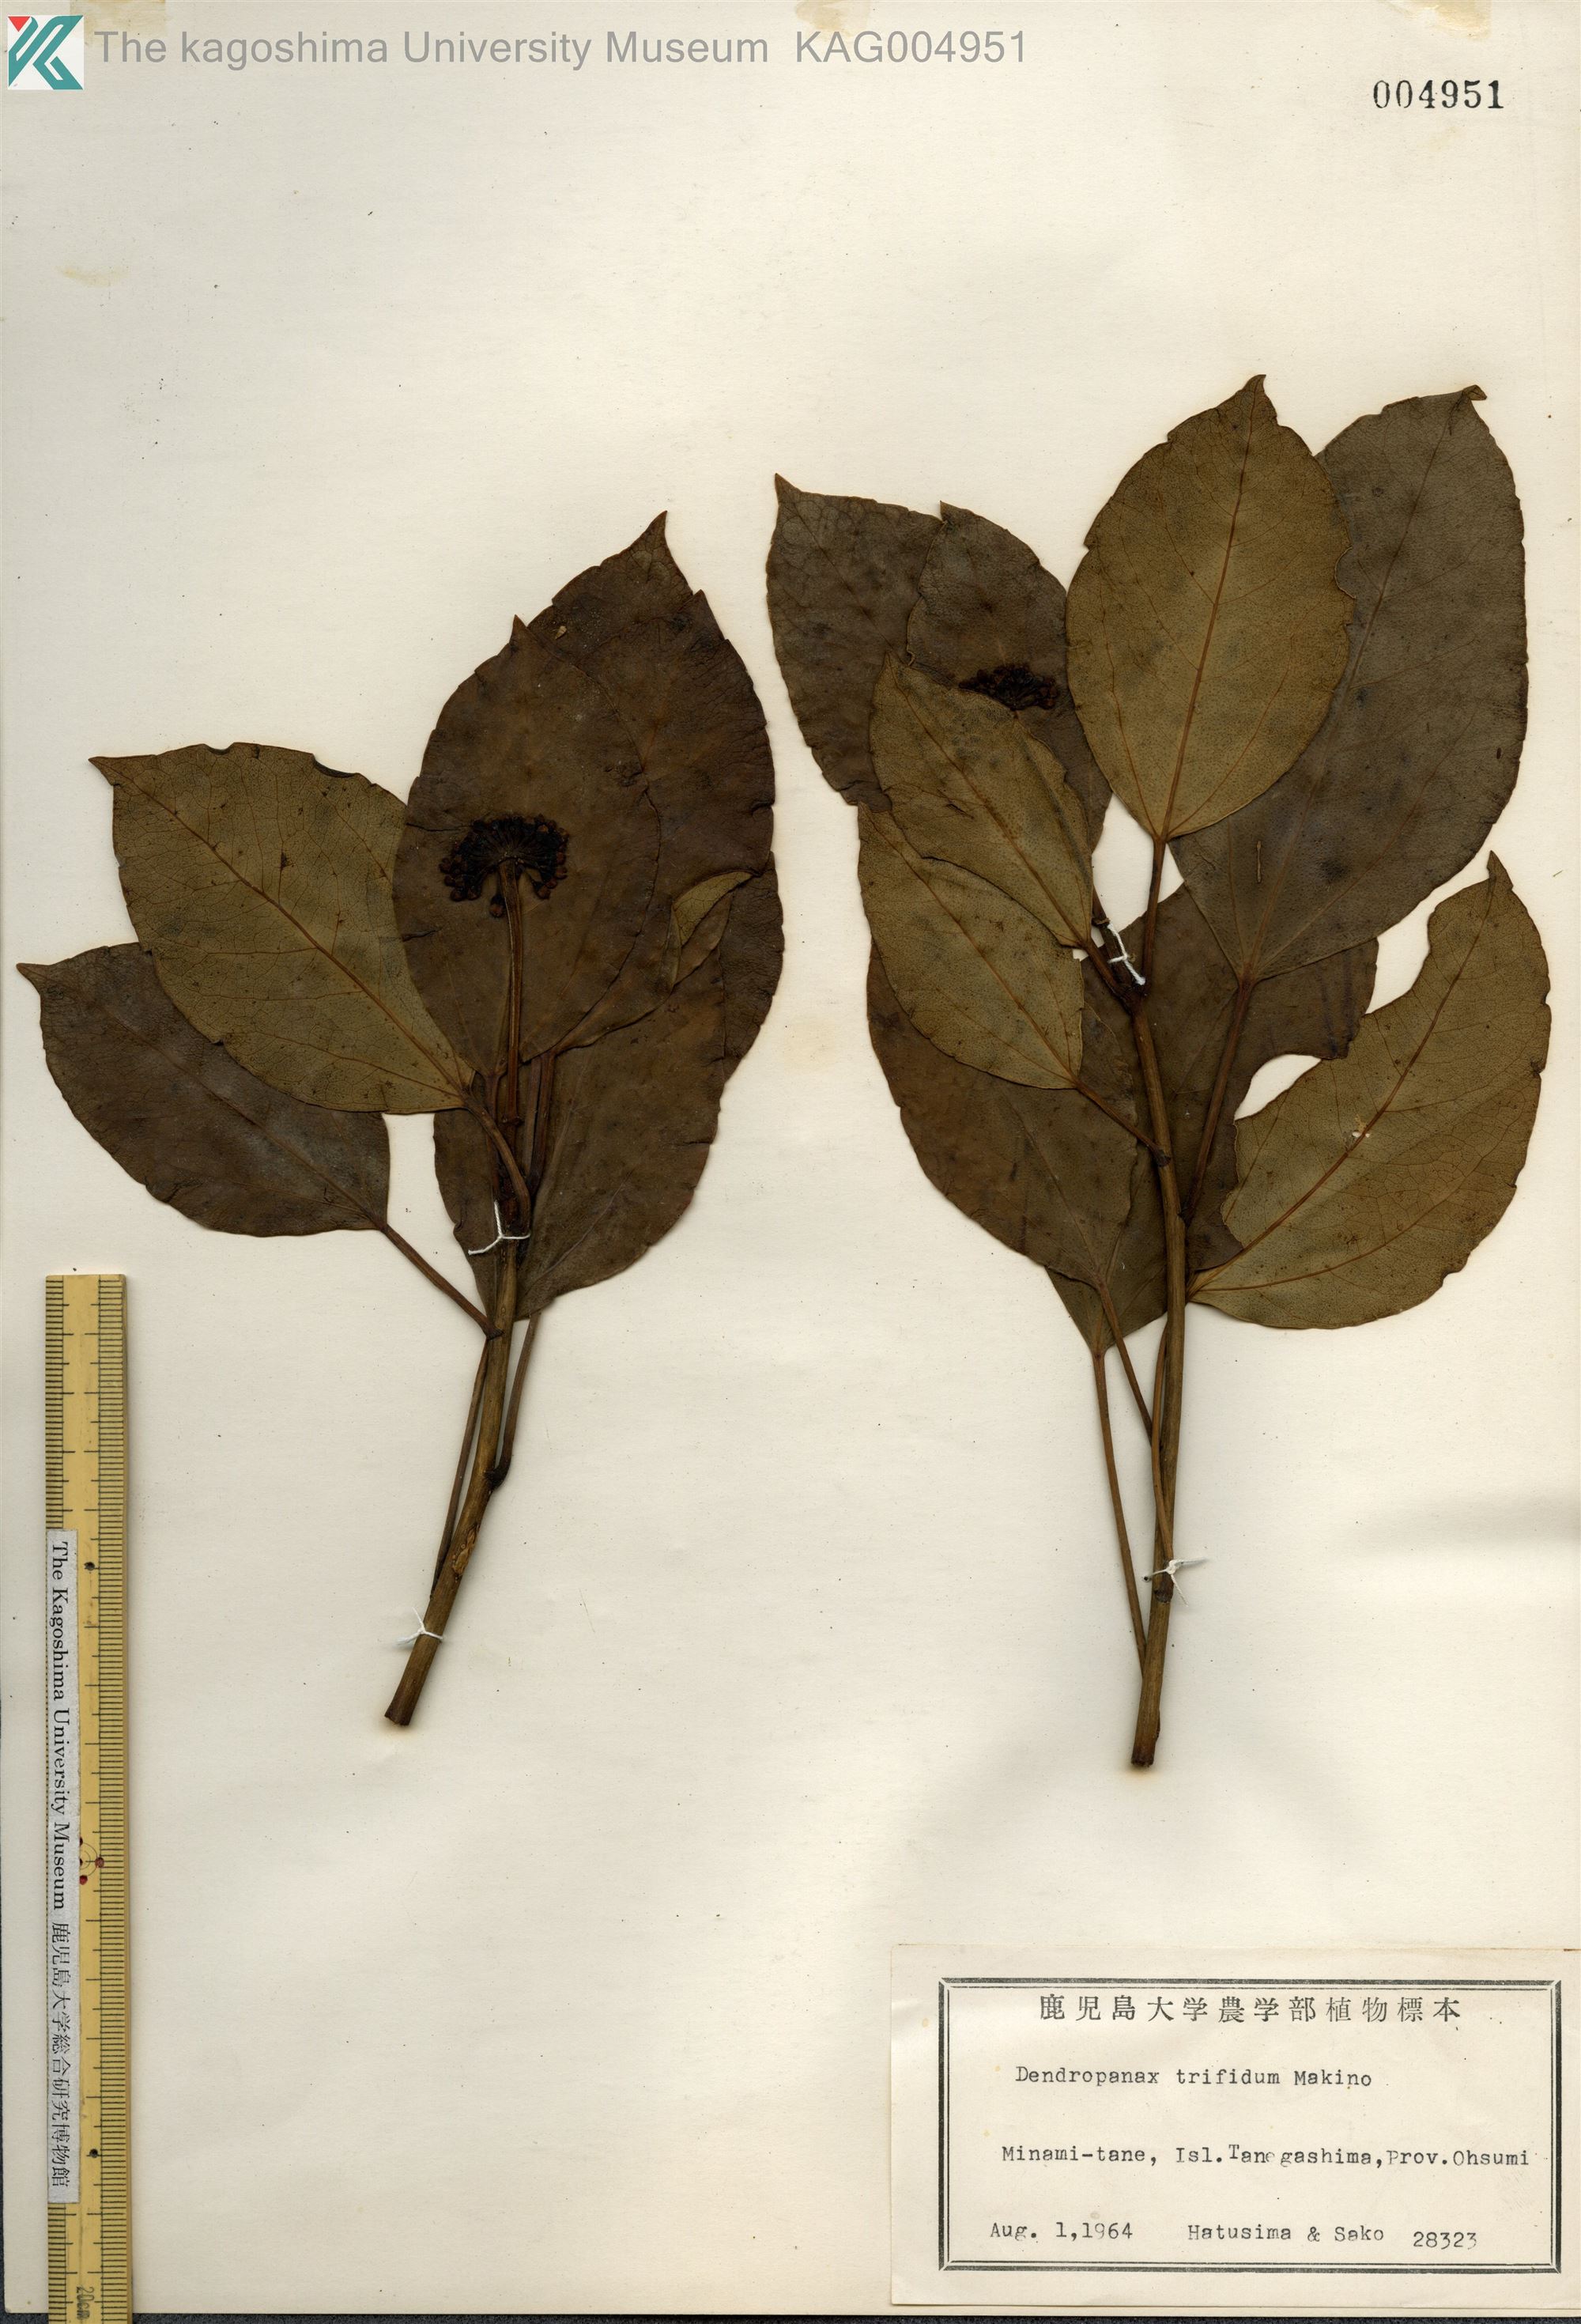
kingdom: Plantae
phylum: Tracheophyta
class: Magnoliopsida
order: Apiales
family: Araliaceae
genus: Dendropanax
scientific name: Dendropanax trifidus
